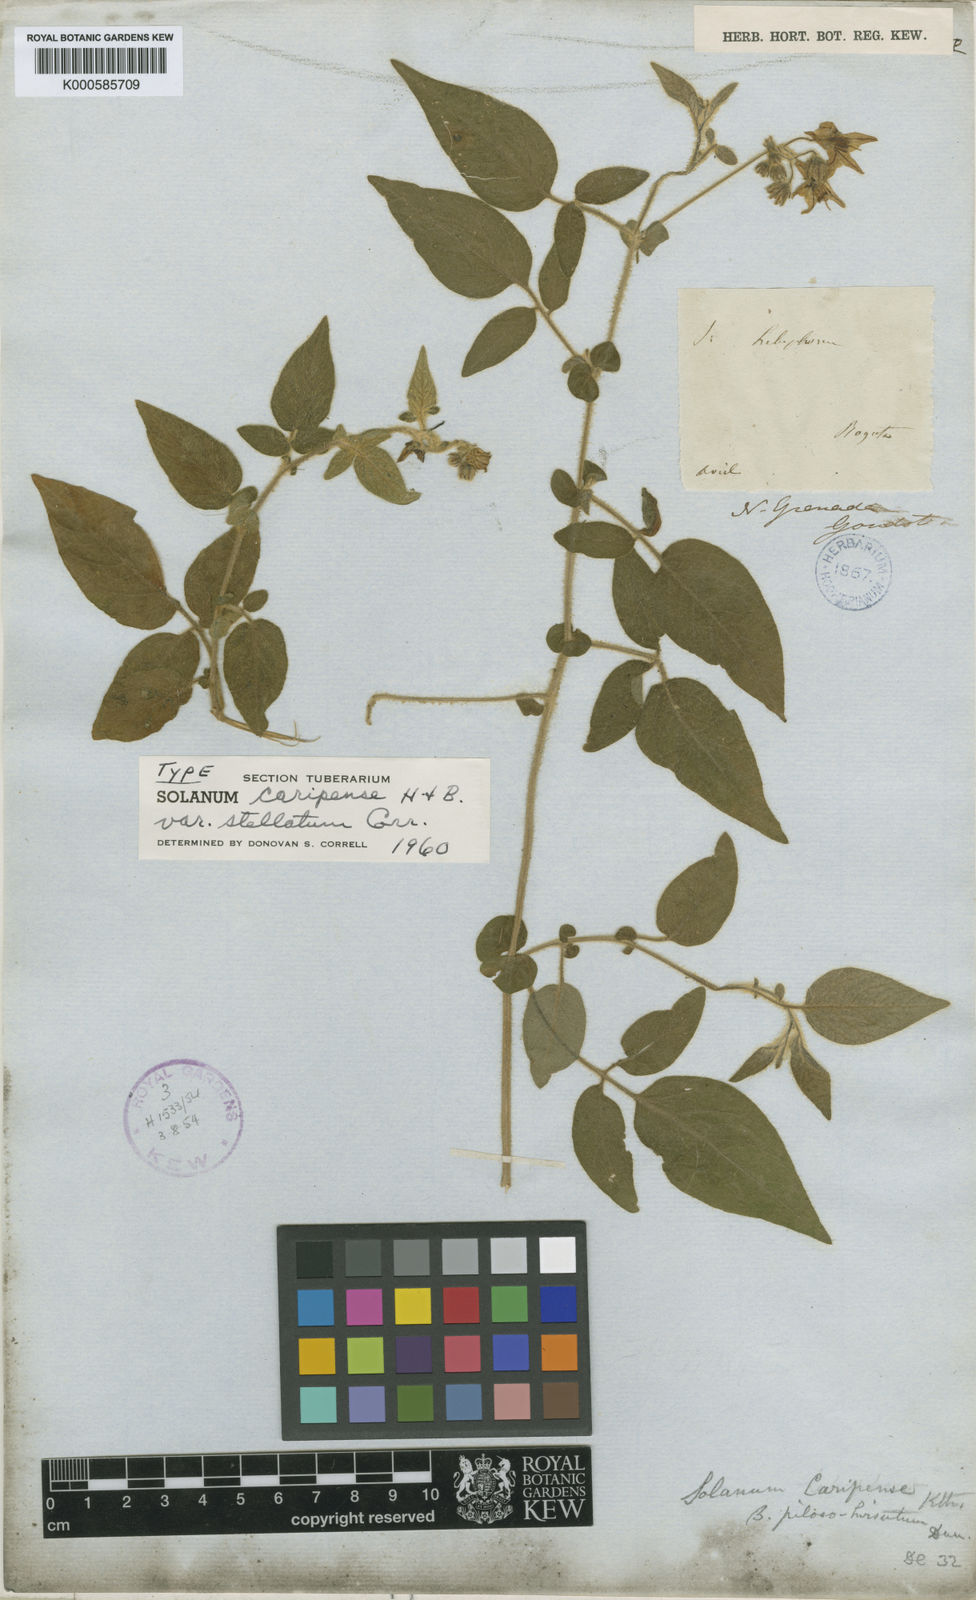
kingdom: Plantae
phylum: Tracheophyta
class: Magnoliopsida
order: Solanales
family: Solanaceae
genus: Solanum
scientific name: Solanum caripense
